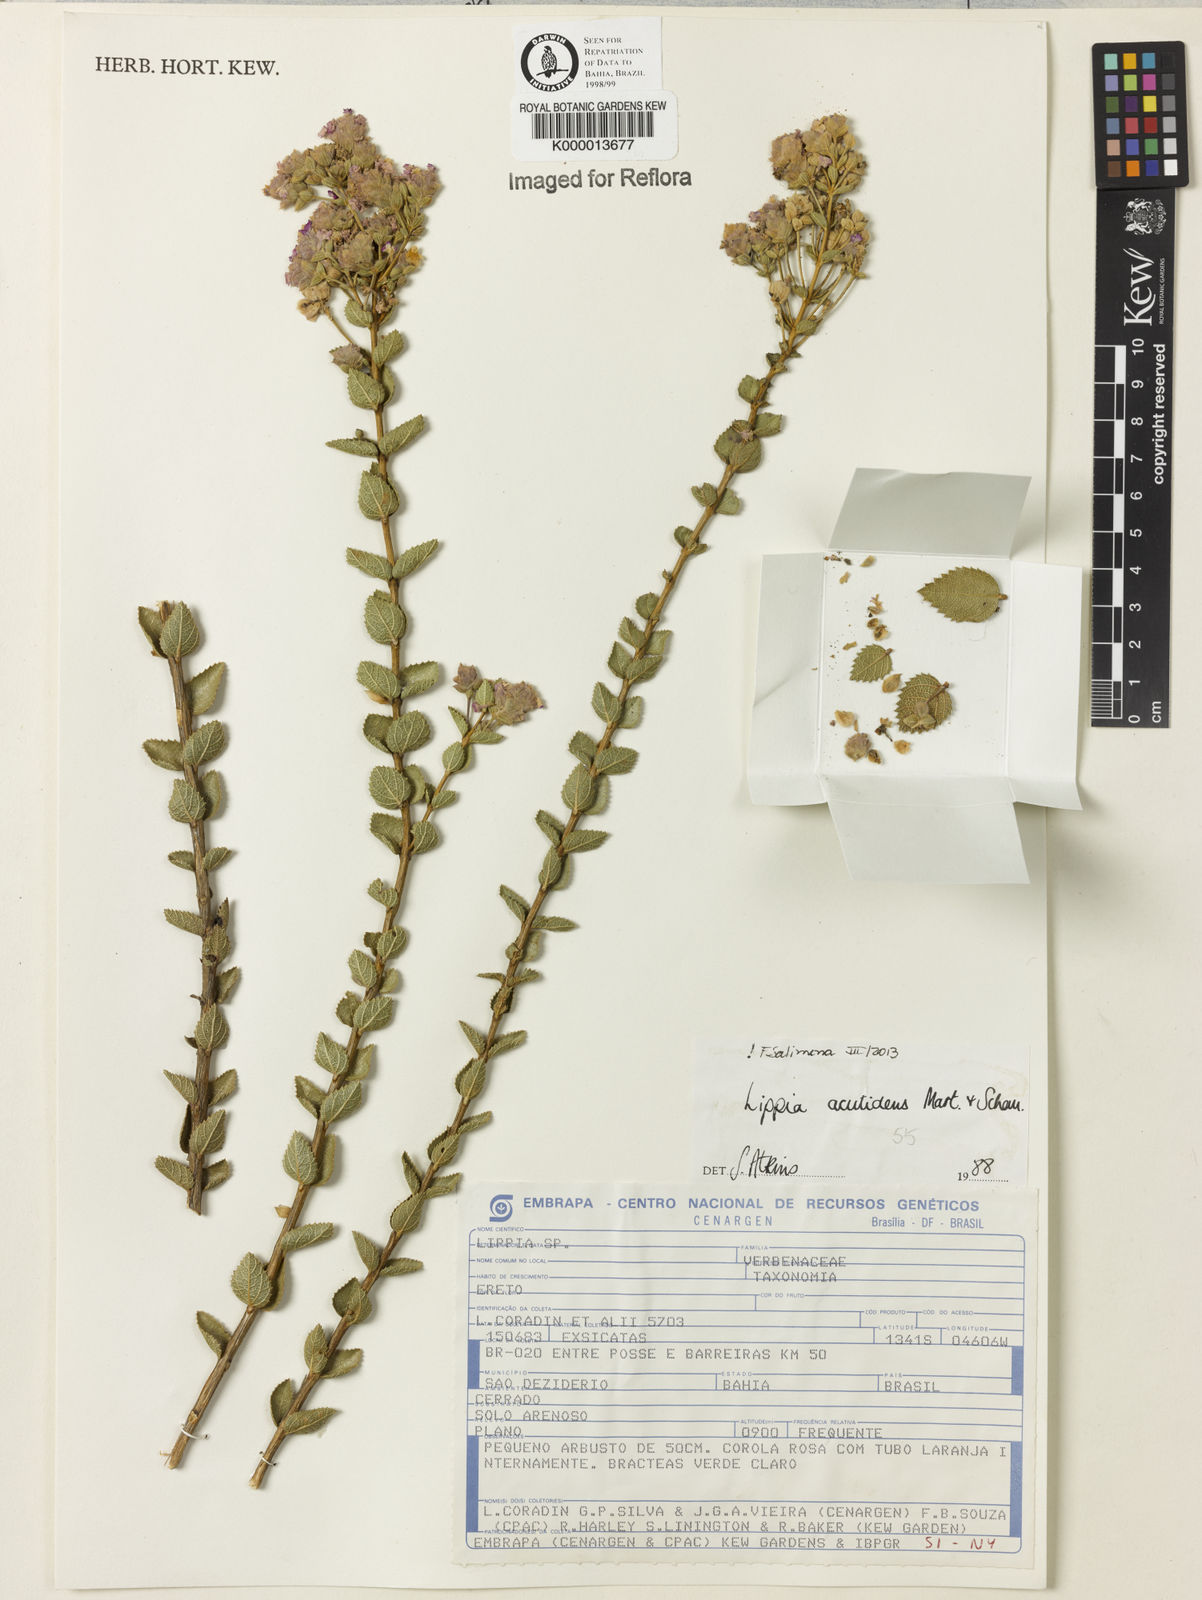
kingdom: Plantae
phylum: Tracheophyta
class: Magnoliopsida
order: Lamiales
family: Verbenaceae
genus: Lippia
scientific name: Lippia acutidens
